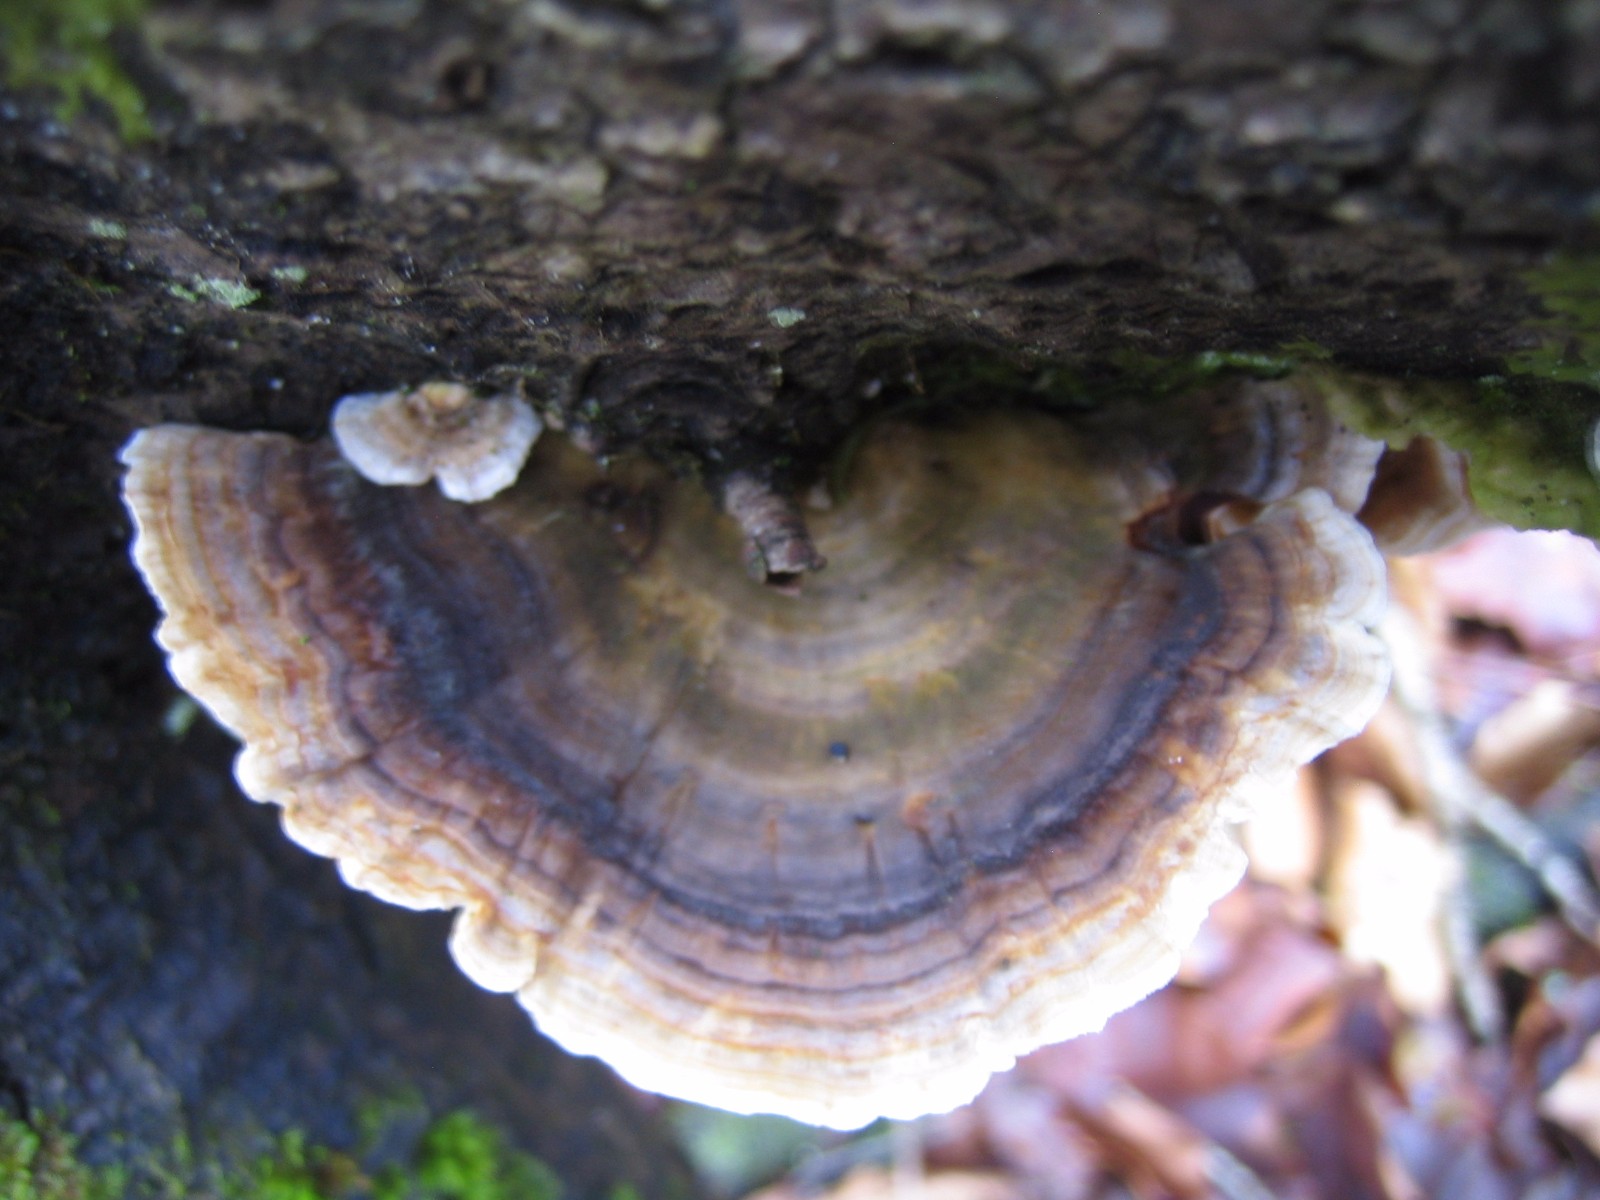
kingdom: Fungi
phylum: Basidiomycota
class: Agaricomycetes
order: Polyporales
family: Polyporaceae
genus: Trametes
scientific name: Trametes versicolor
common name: broget læderporesvamp
